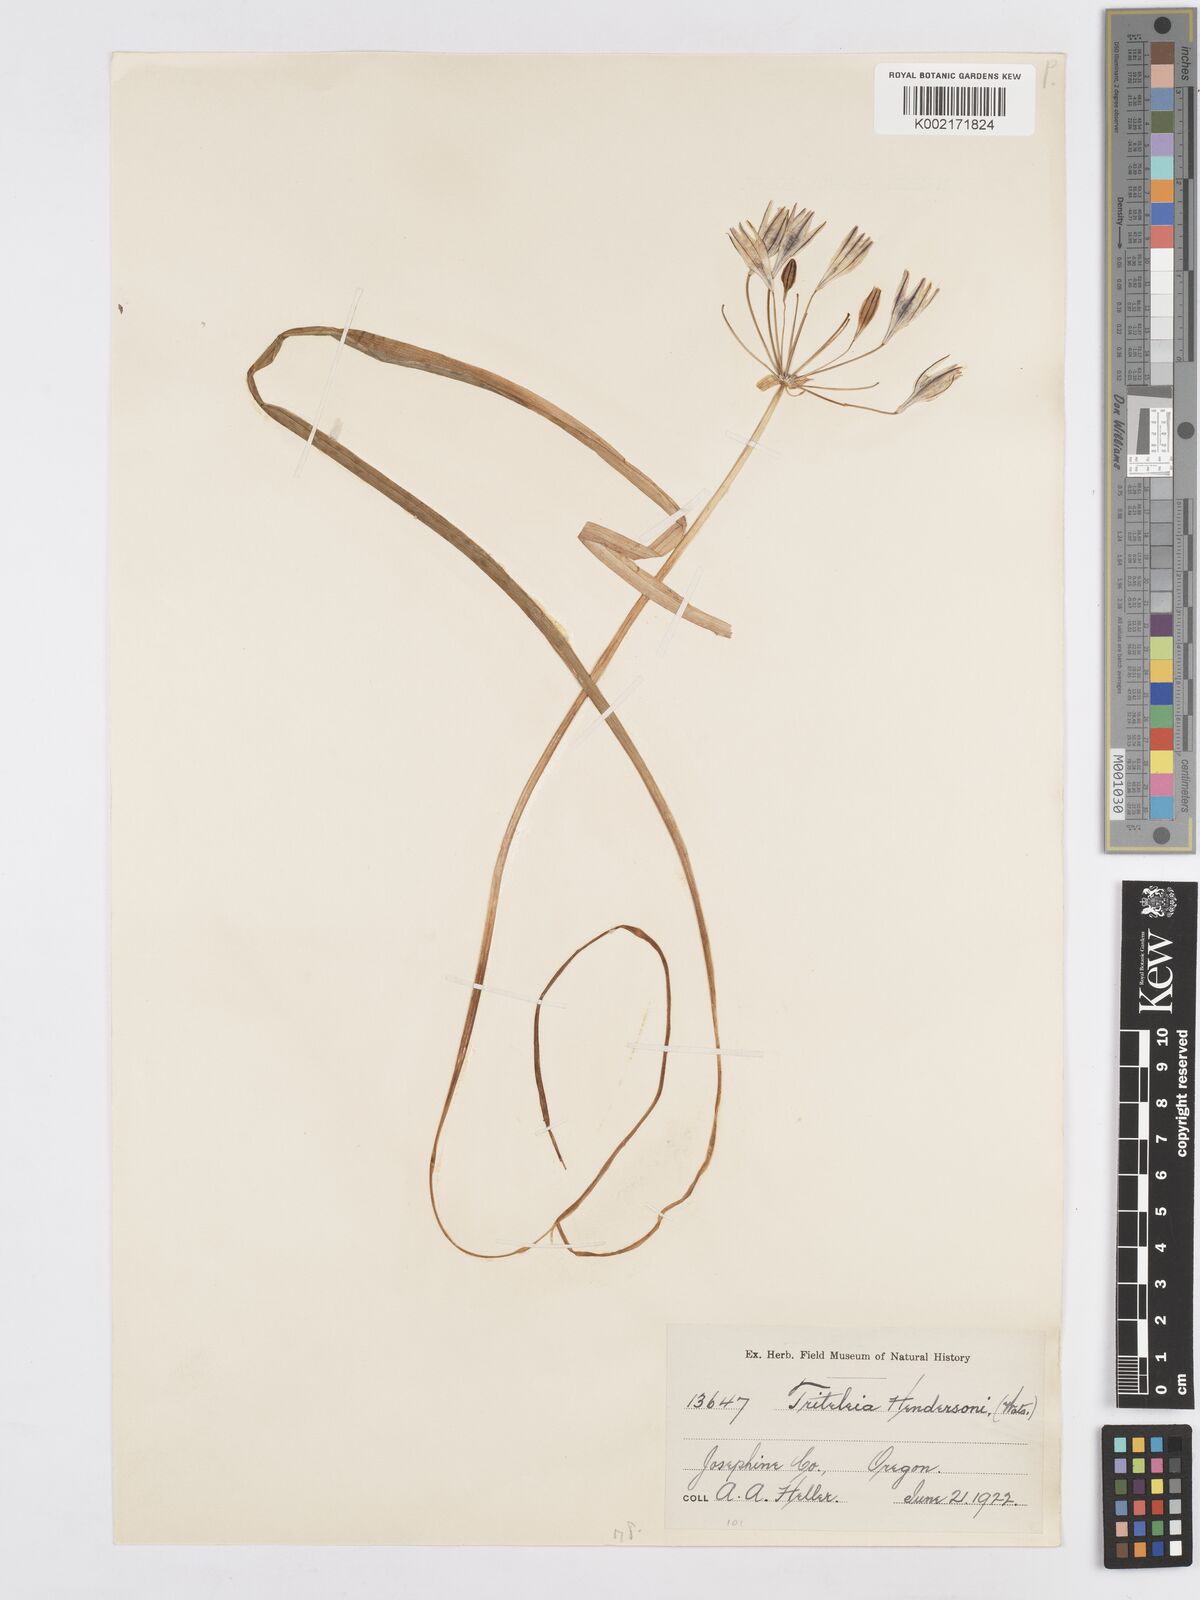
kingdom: Plantae
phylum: Tracheophyta
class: Liliopsida
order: Asparagales
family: Asparagaceae
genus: Triteleia
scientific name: Triteleia hendersonii
